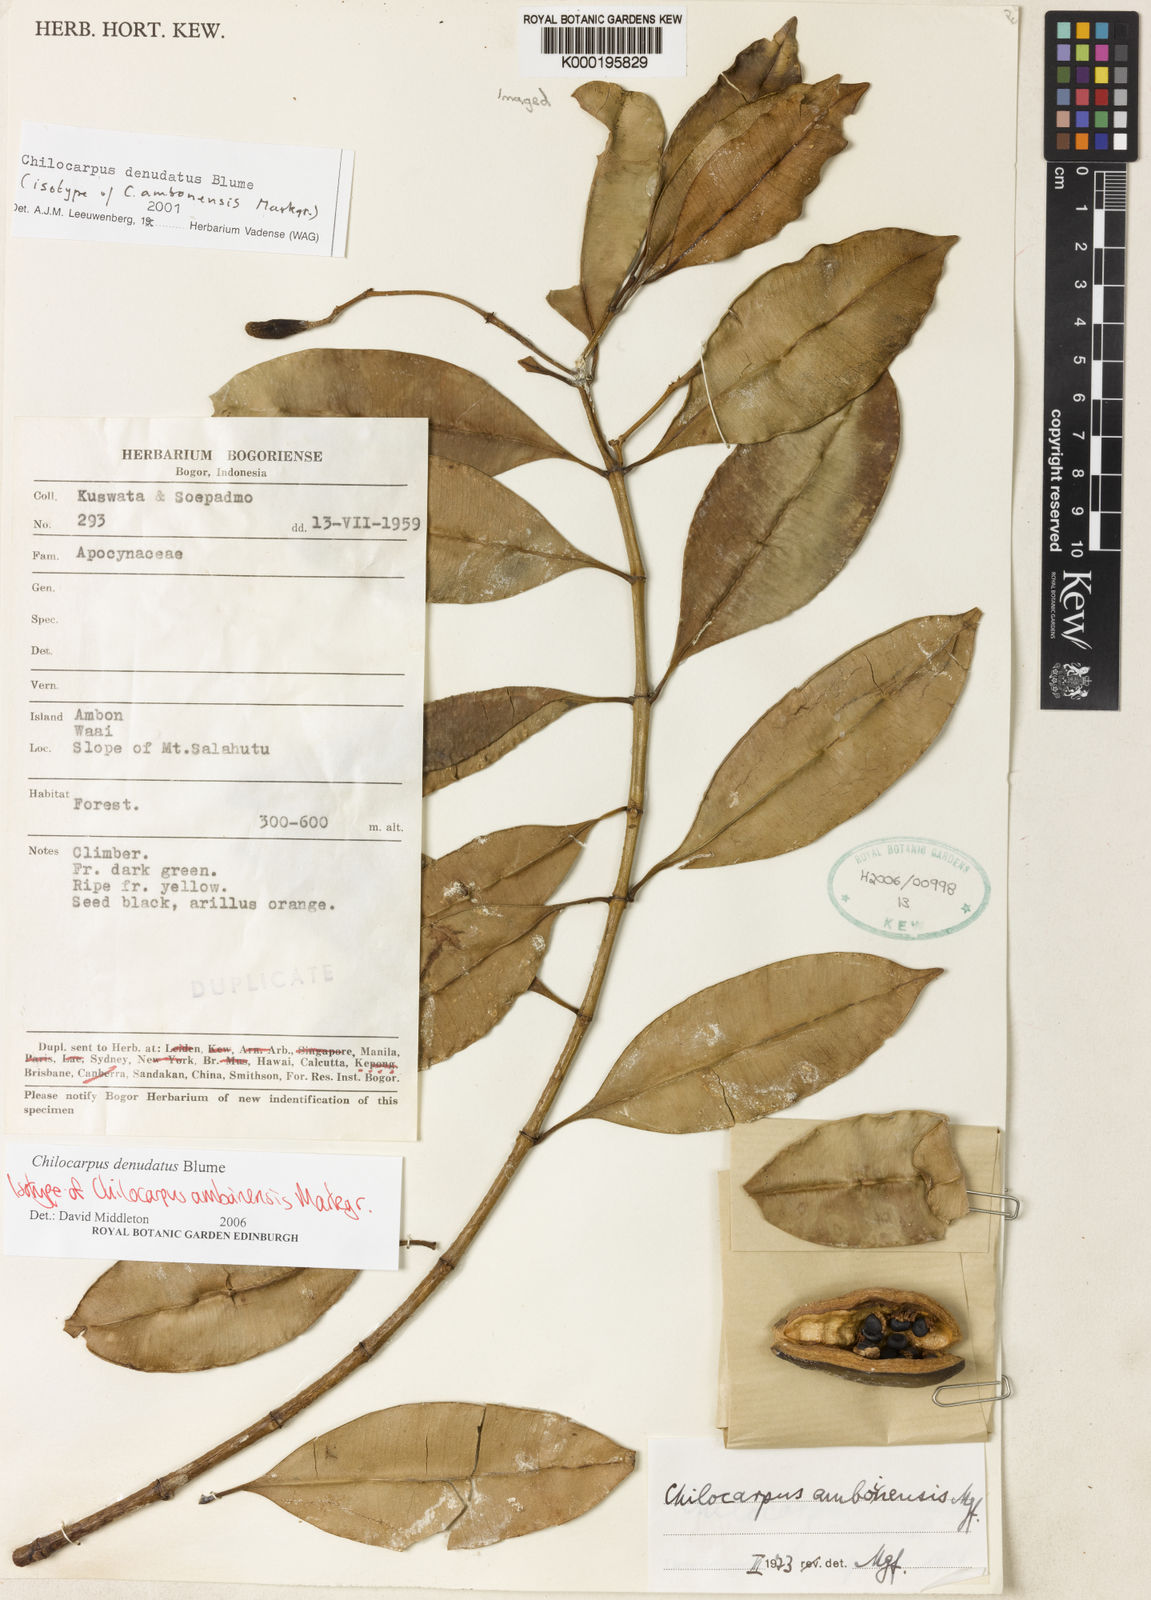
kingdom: Plantae
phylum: Tracheophyta
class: Magnoliopsida
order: Gentianales
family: Apocynaceae
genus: Chilocarpus
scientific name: Chilocarpus denudatus
